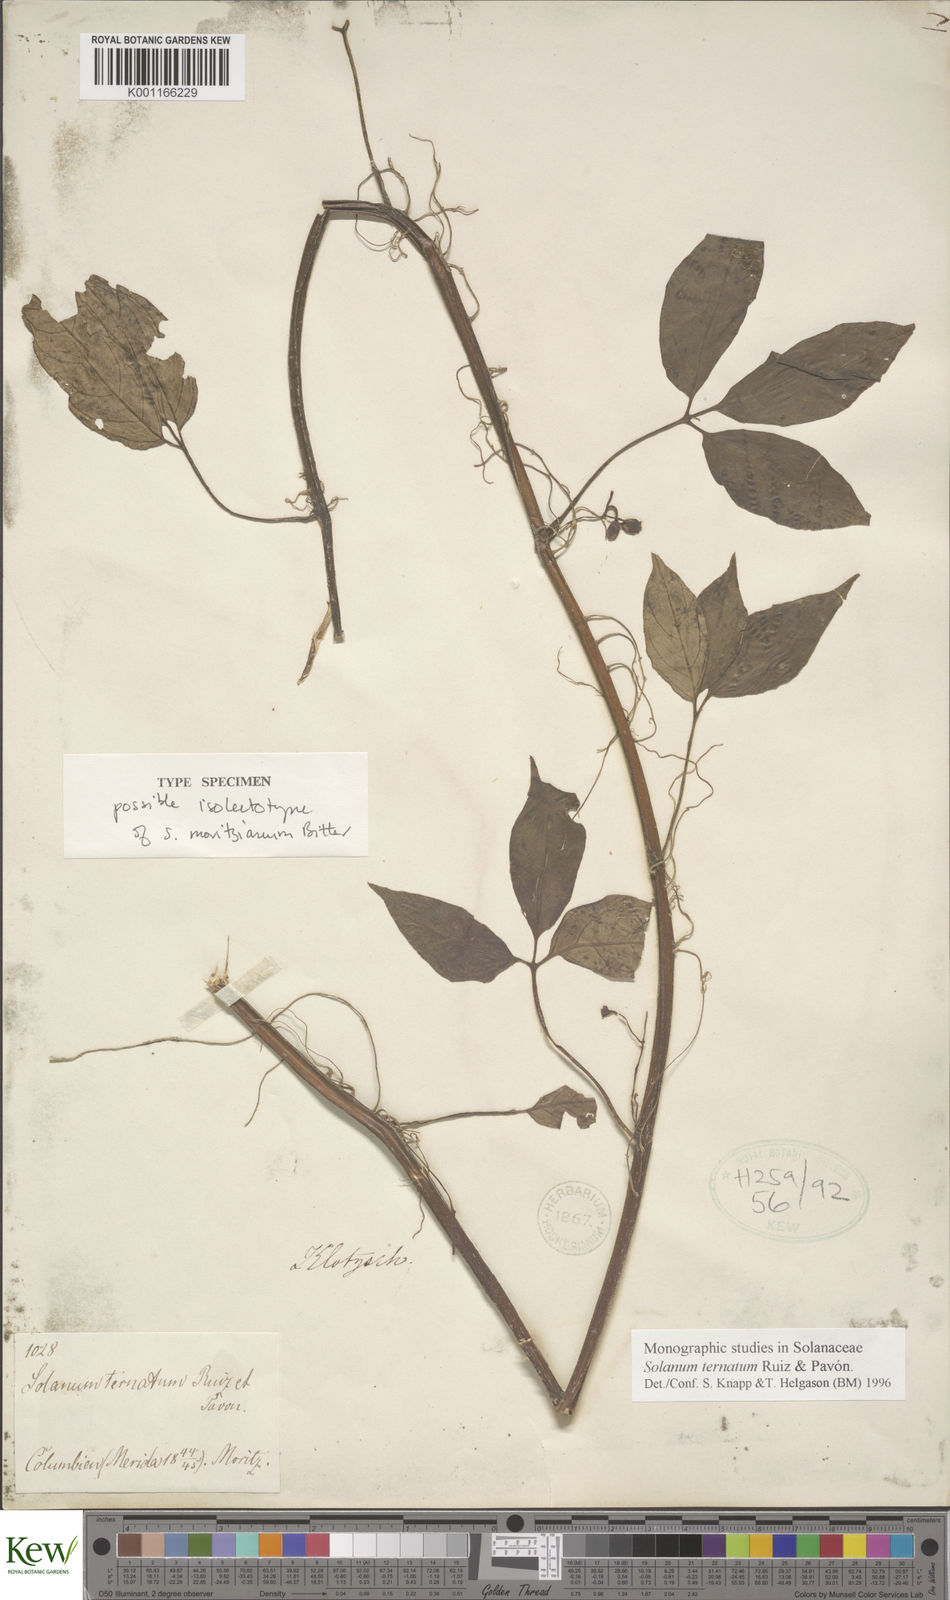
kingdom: Plantae
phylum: Tracheophyta
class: Magnoliopsida
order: Solanales
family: Solanaceae
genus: Solanum
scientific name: Solanum ternatum
